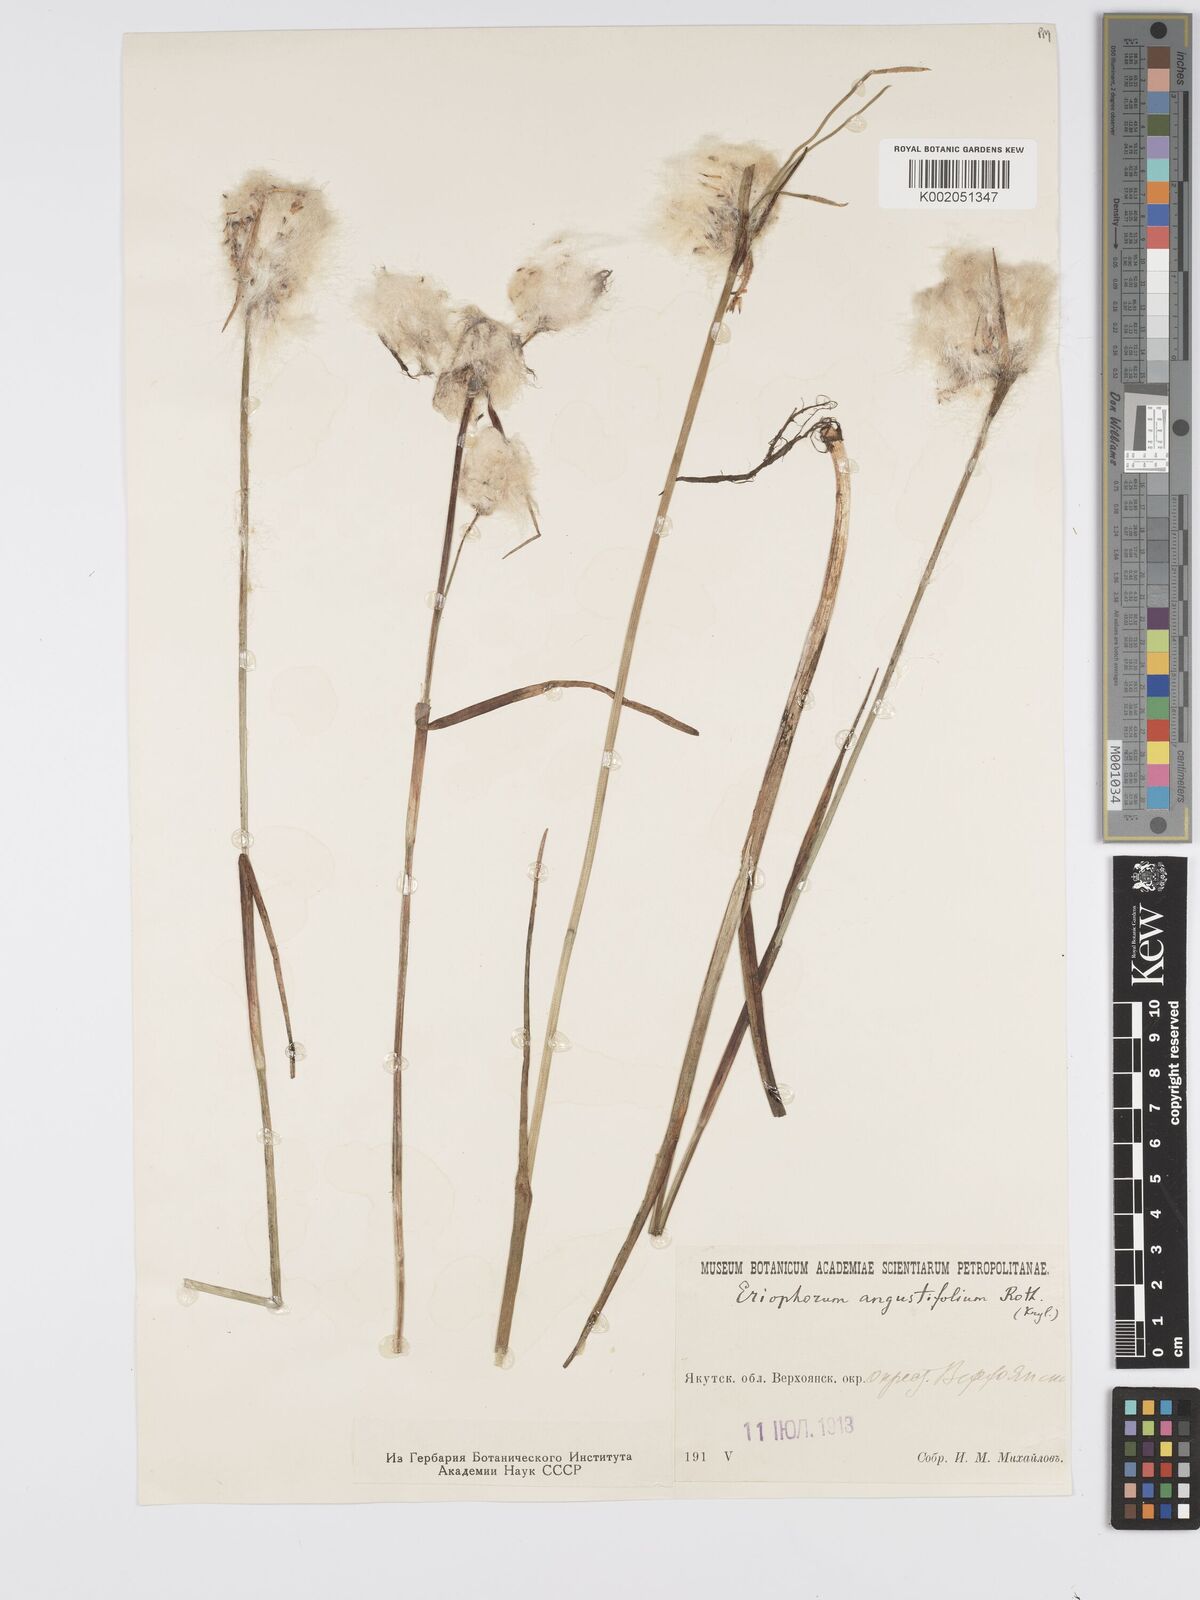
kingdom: Plantae
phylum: Tracheophyta
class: Liliopsida
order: Poales
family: Cyperaceae
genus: Eriophorum
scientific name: Eriophorum angustifolium
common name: Common cottongrass
